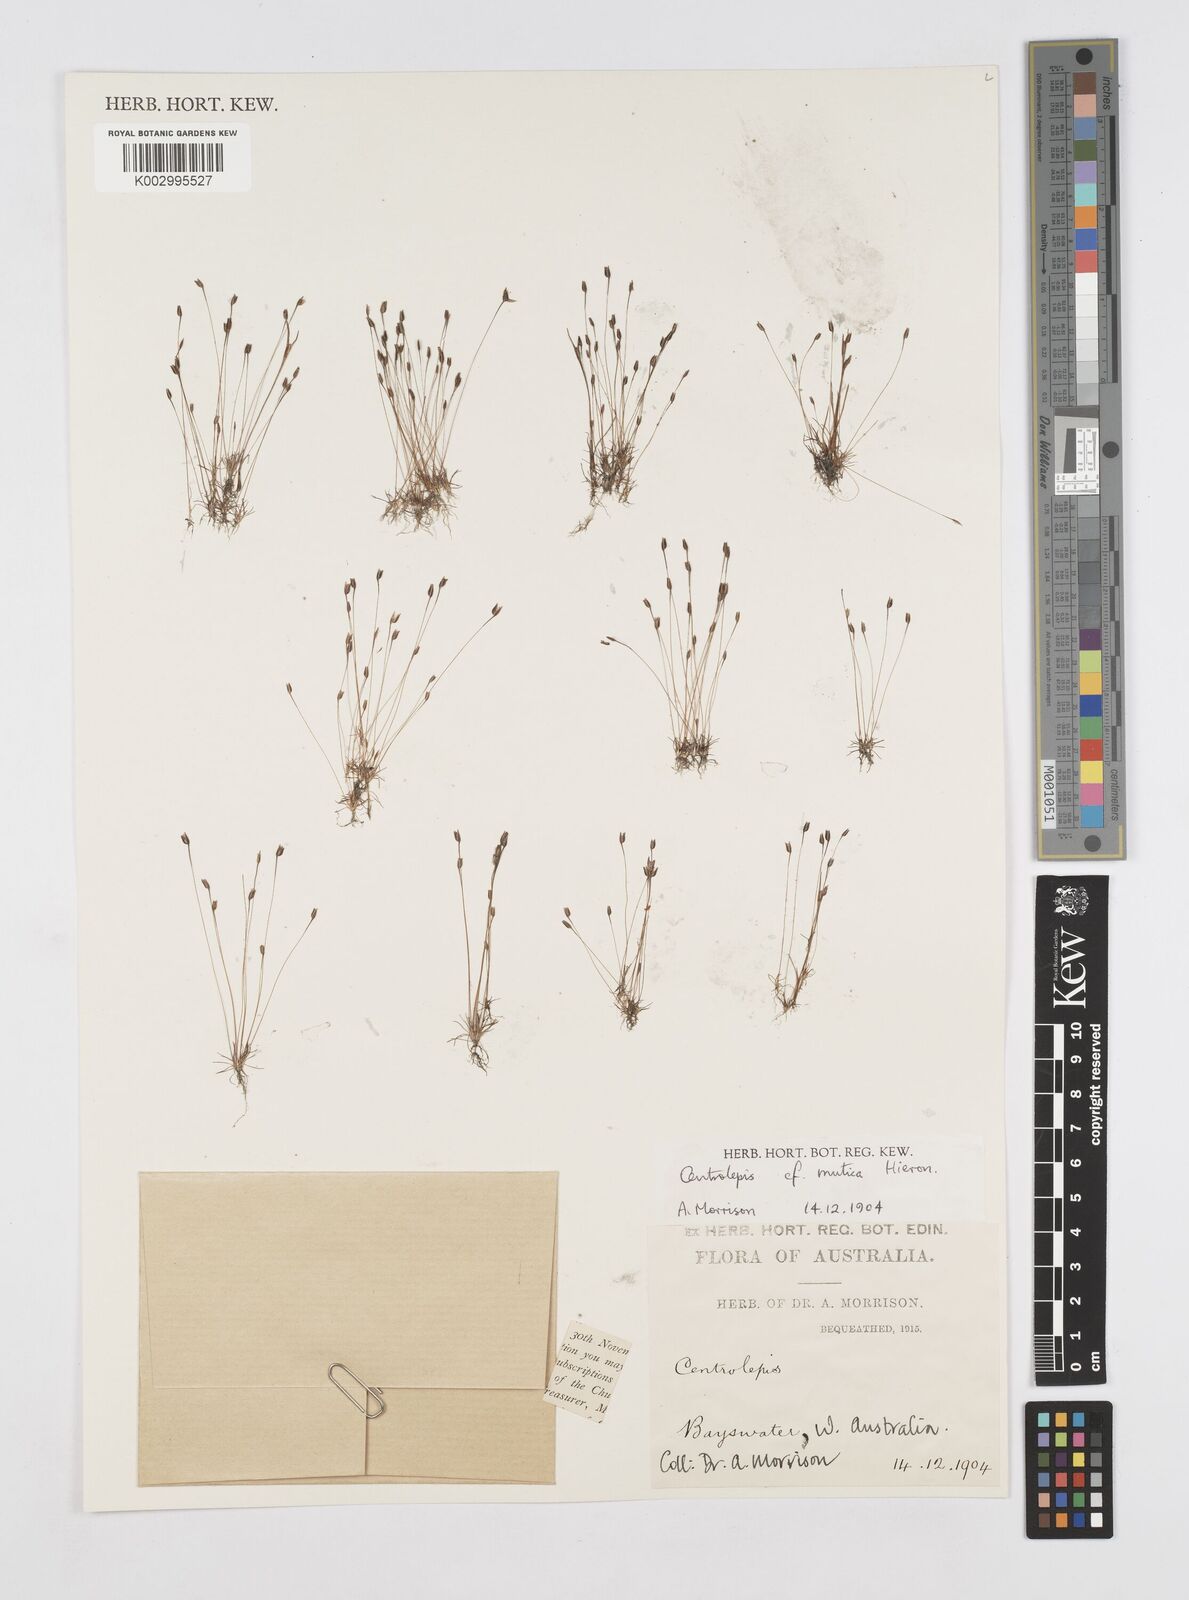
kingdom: Plantae
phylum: Tracheophyta
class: Liliopsida
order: Poales
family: Restionaceae
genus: Centrolepis
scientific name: Centrolepis mutica
